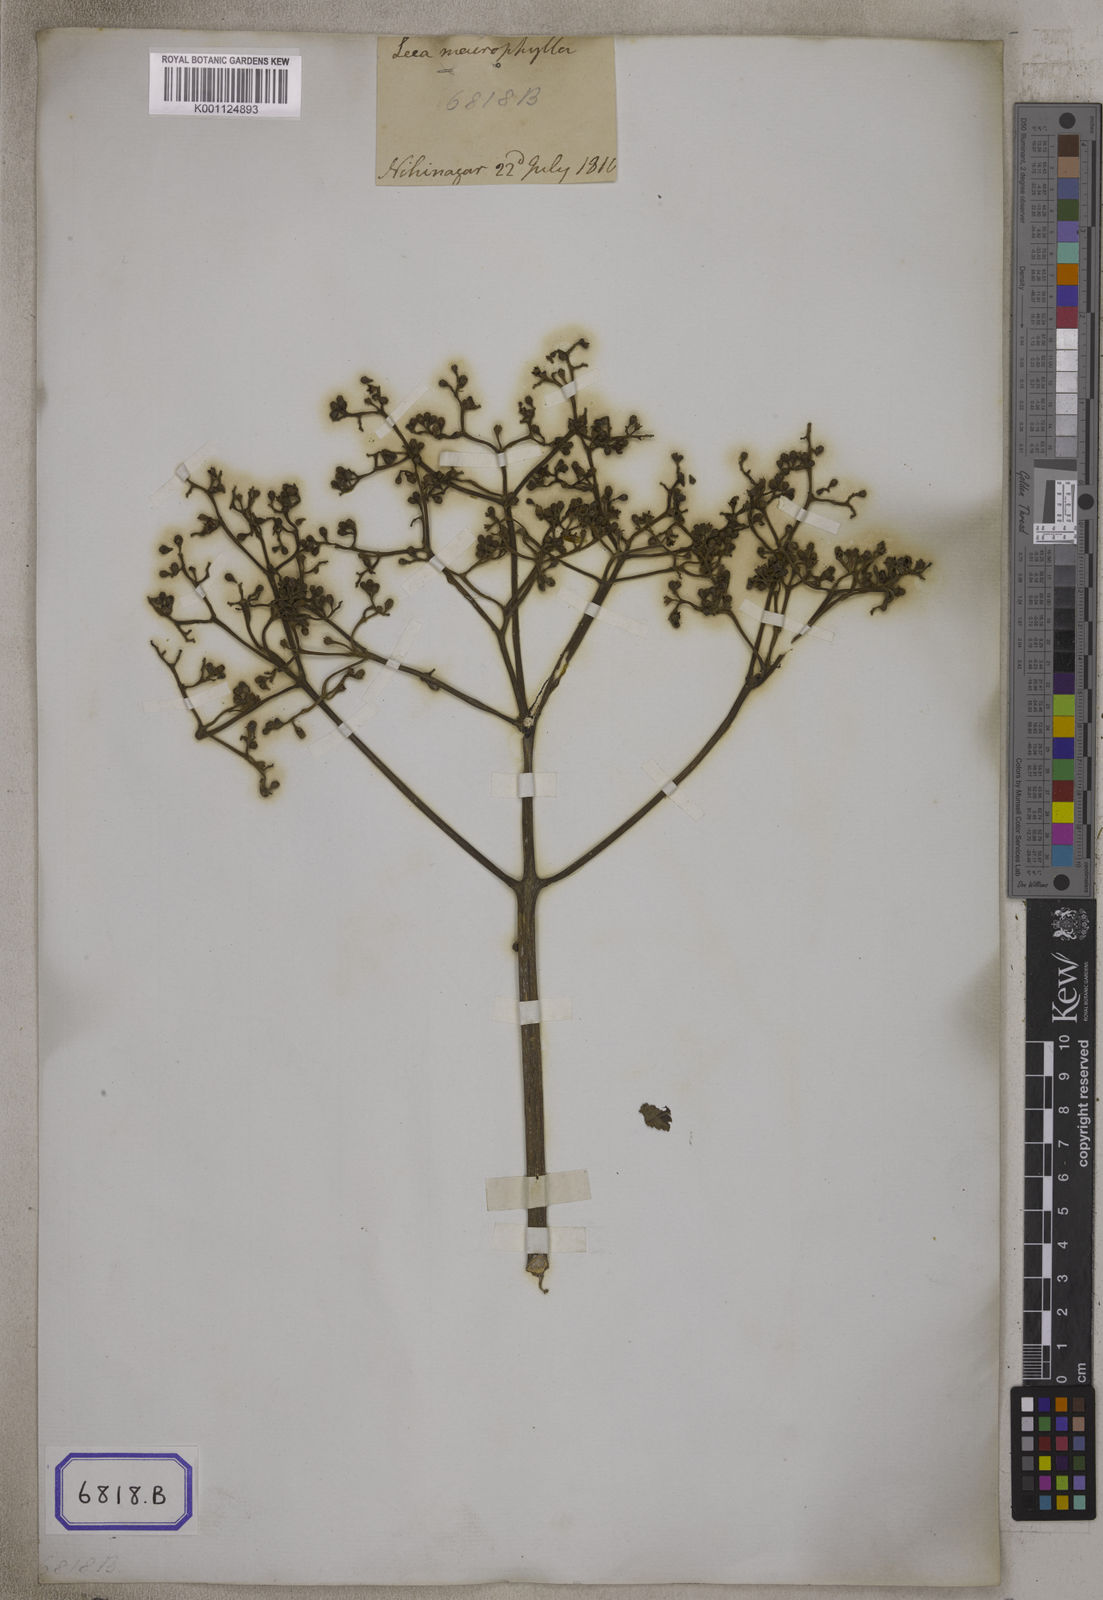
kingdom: Plantae
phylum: Tracheophyta
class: Magnoliopsida
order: Vitales
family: Vitaceae
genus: Leea
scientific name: Leea macrophylla
